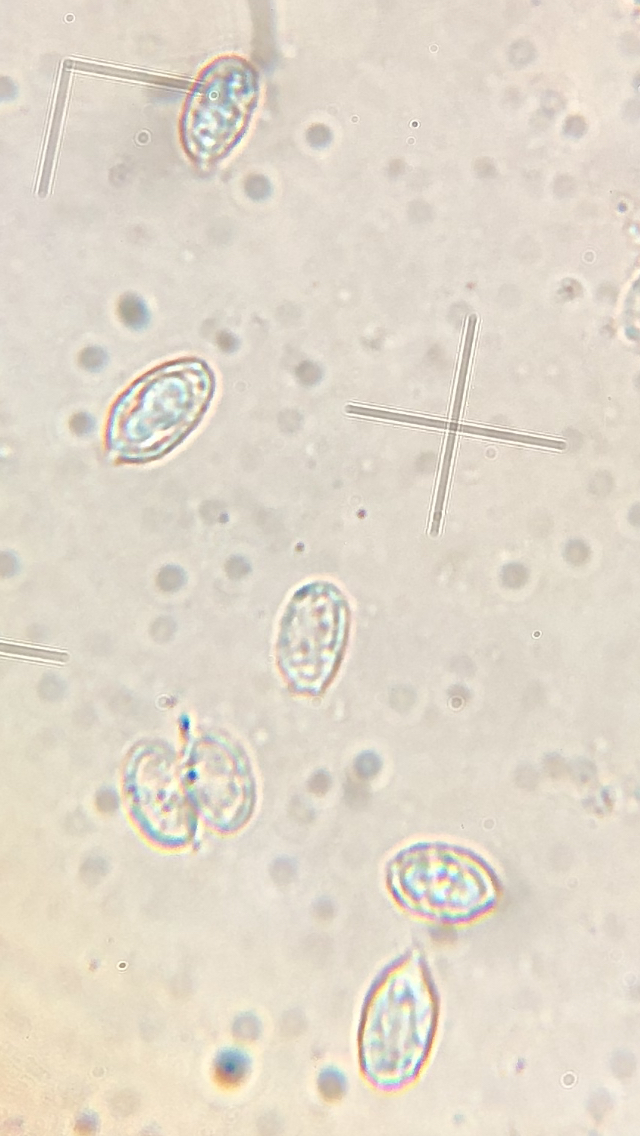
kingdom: Fungi
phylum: Basidiomycota
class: Agaricomycetes
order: Agaricales
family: Tricholomataceae
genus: Melanoleuca
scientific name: Melanoleuca
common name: munkehat
